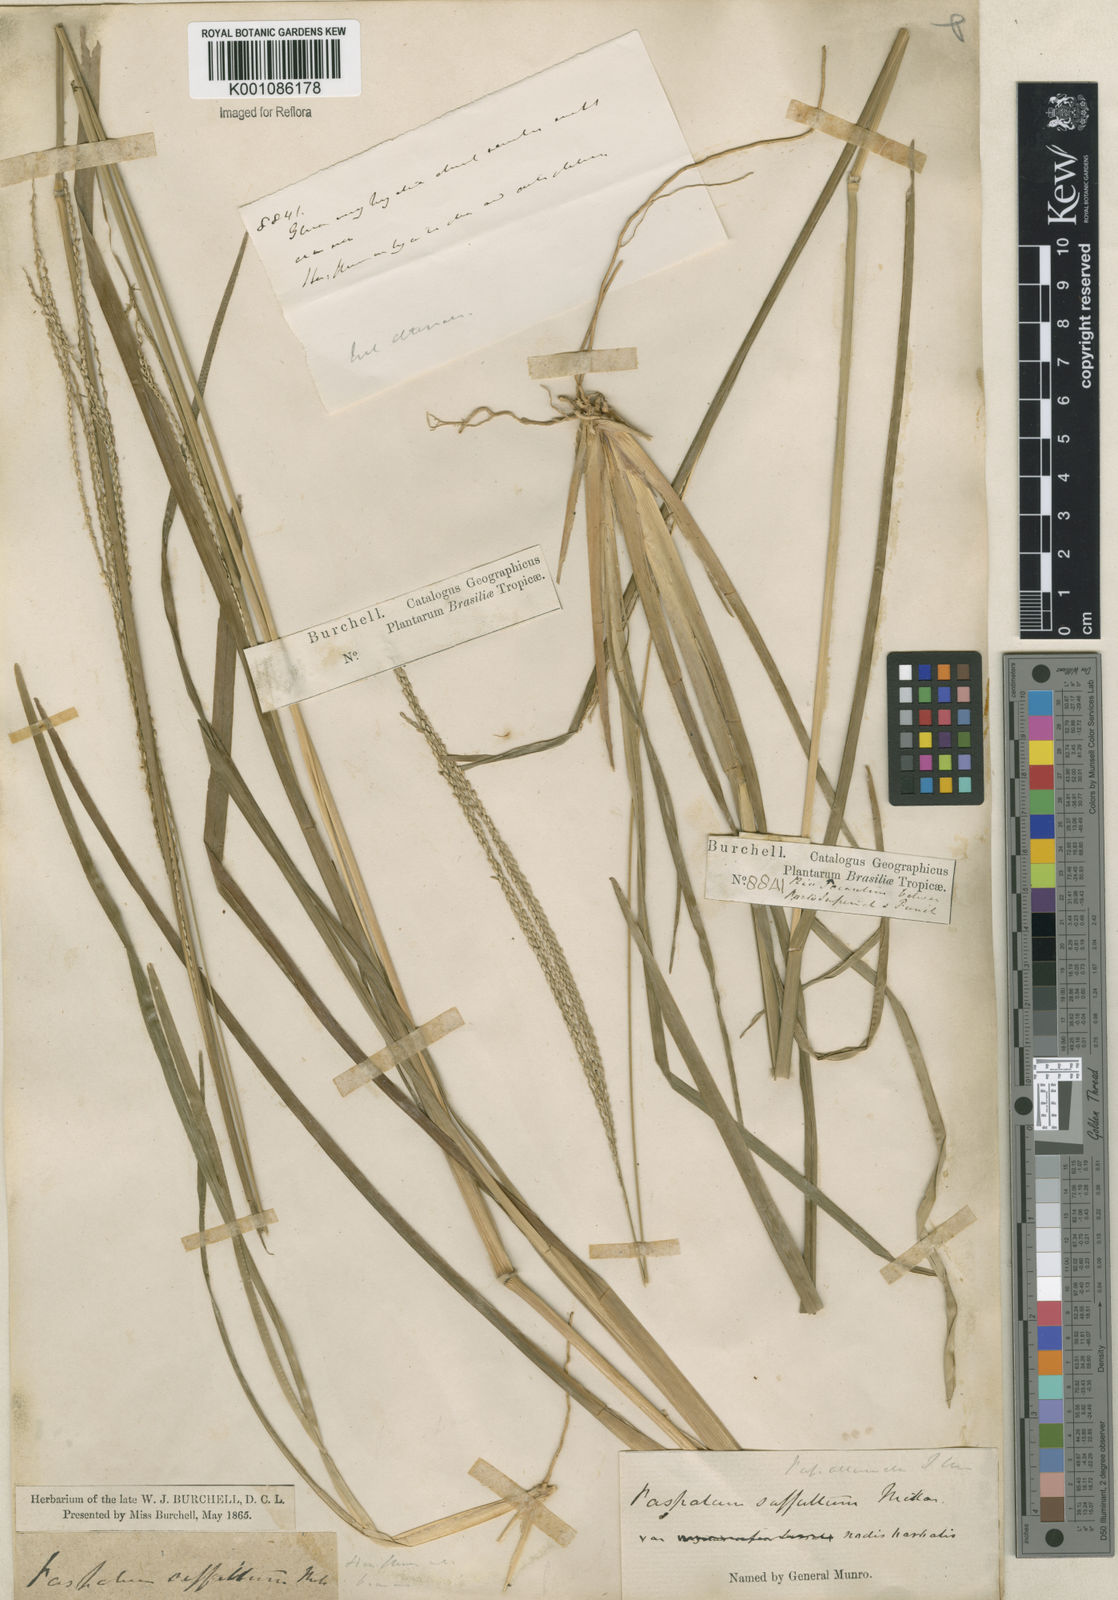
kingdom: Plantae
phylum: Tracheophyta
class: Liliopsida
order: Poales
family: Poaceae
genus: Axonopus
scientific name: Axonopus
